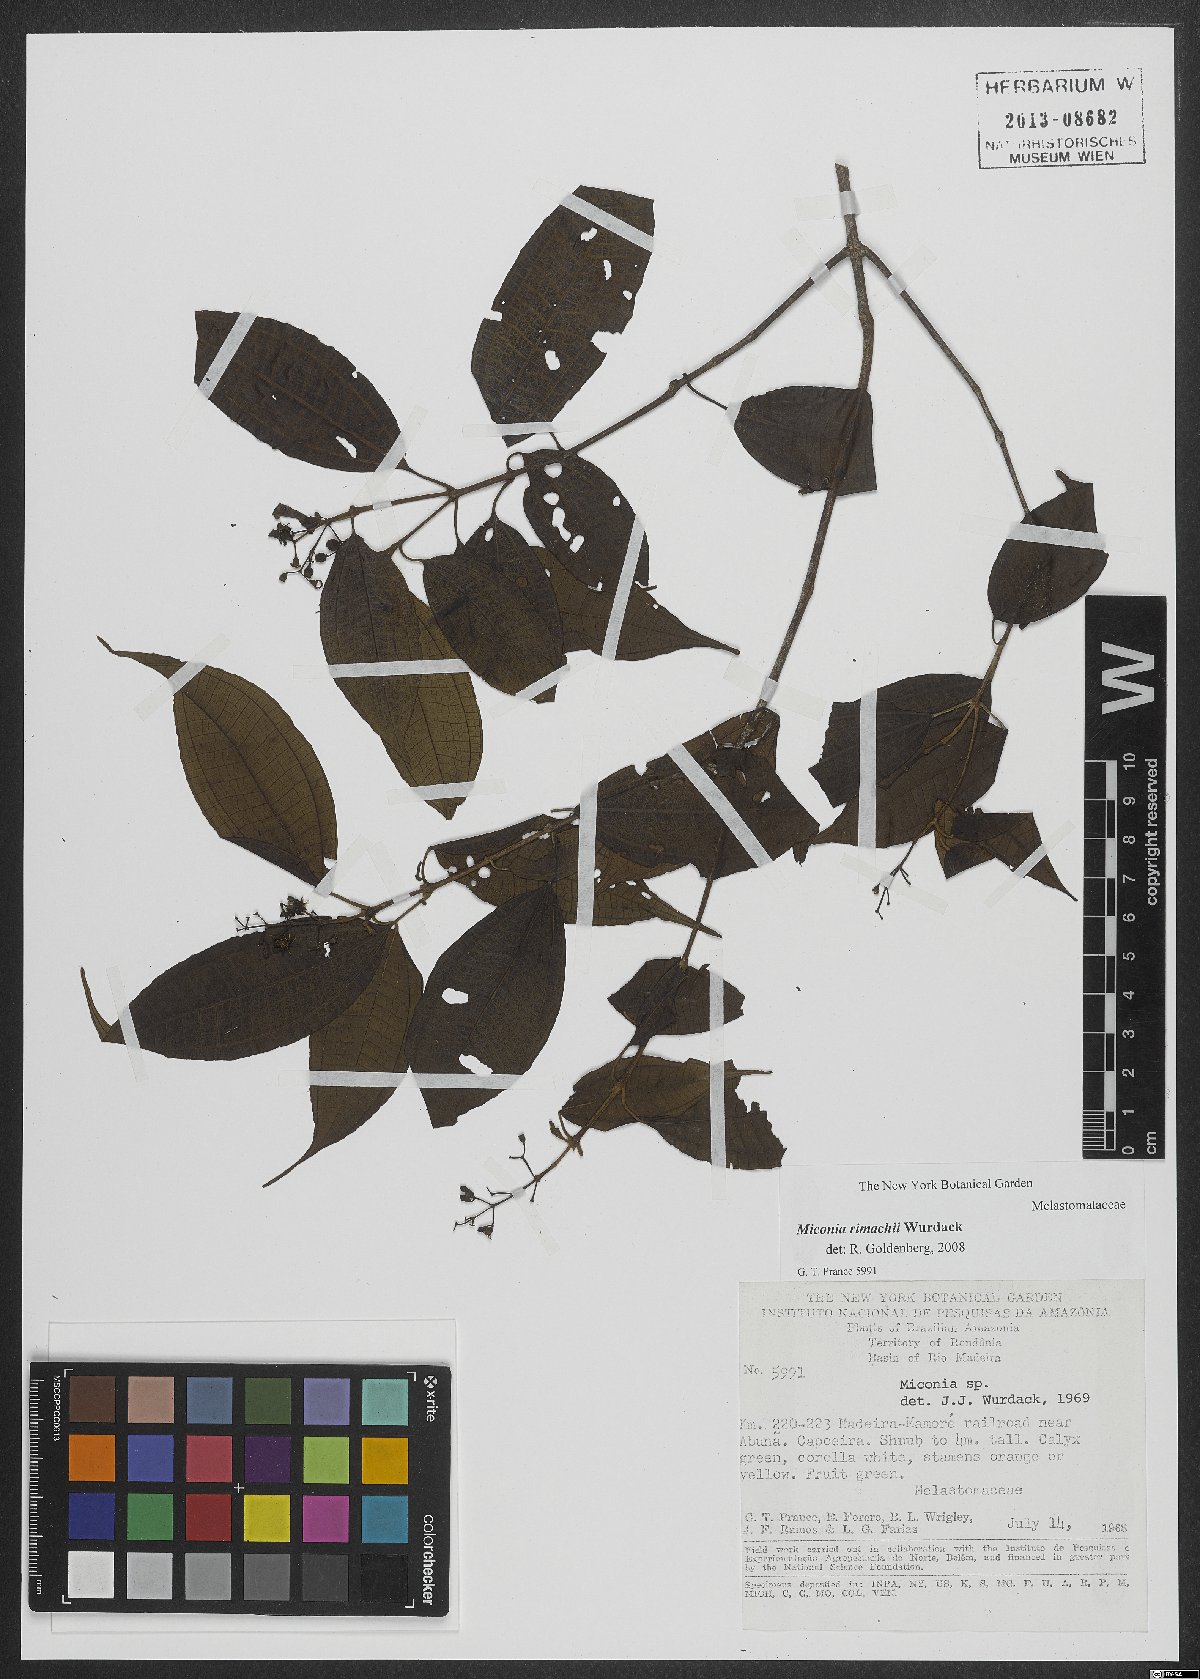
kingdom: Plantae
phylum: Tracheophyta
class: Magnoliopsida
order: Myrtales
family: Melastomataceae
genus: Miconia
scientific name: Miconia rimachii
